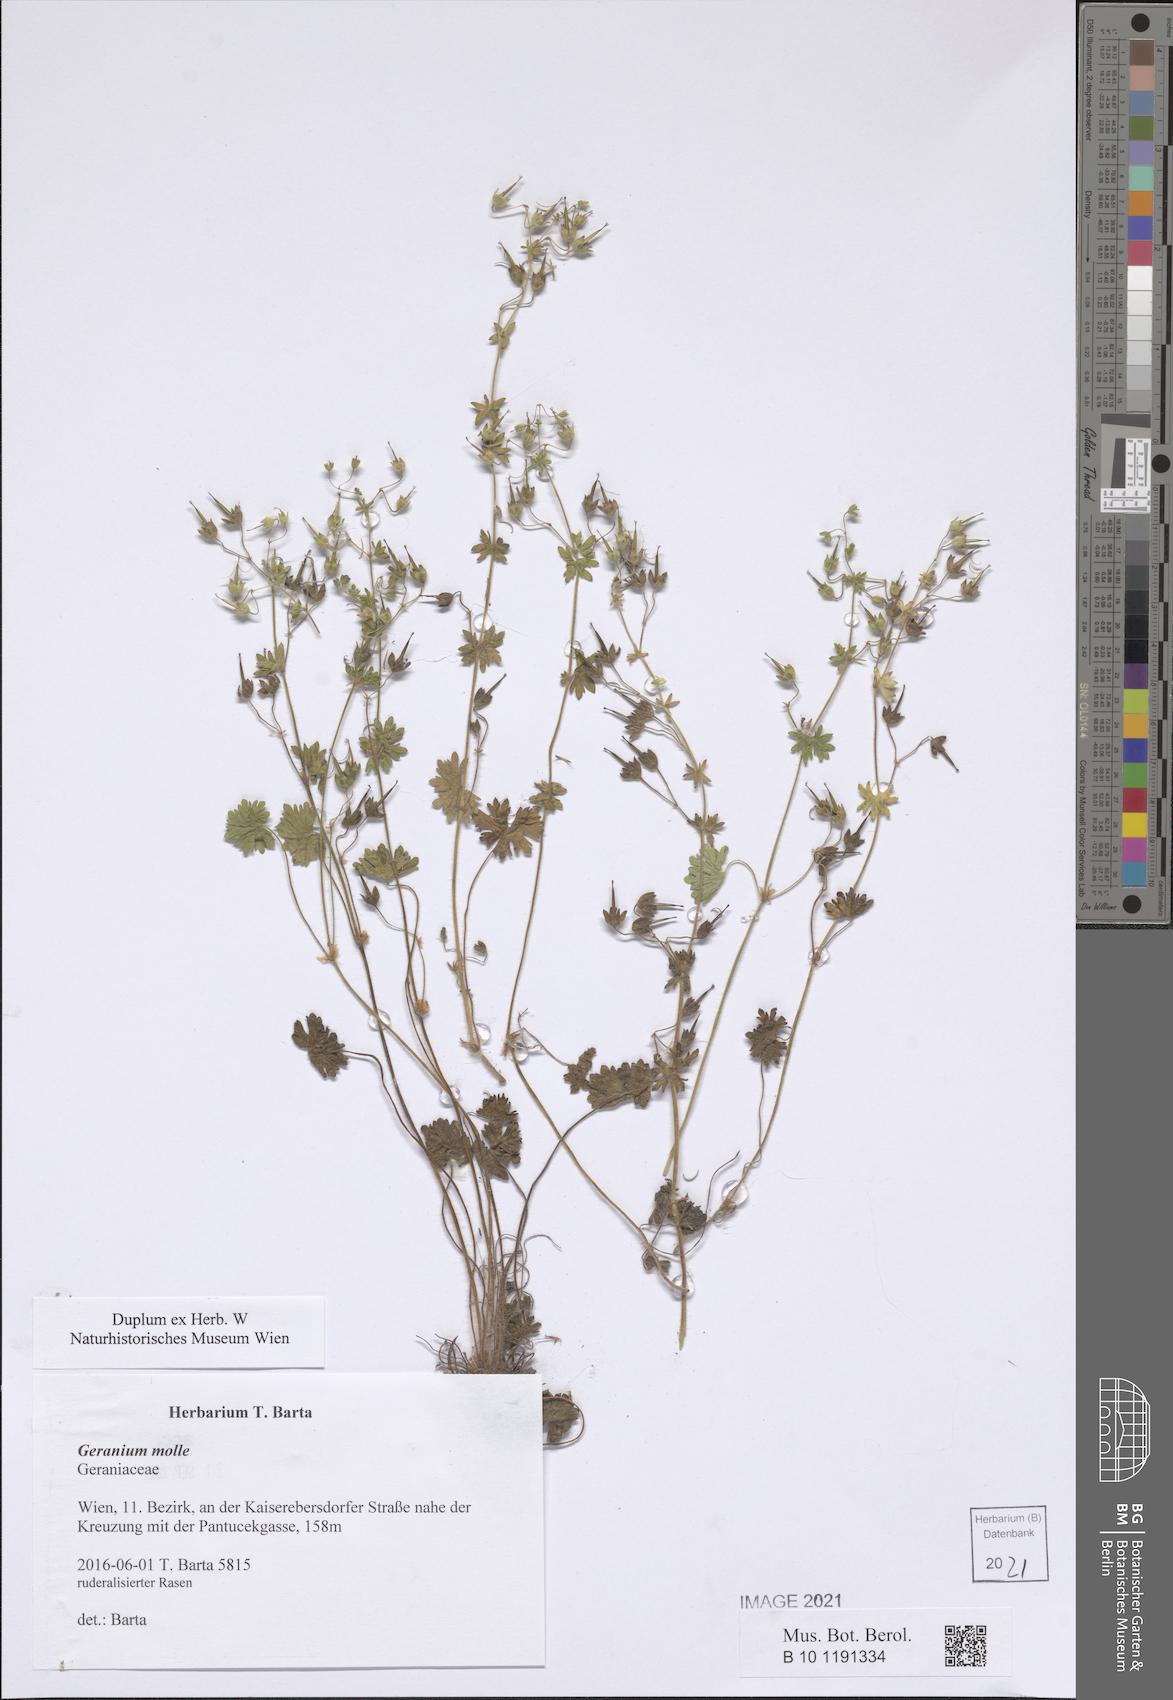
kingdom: Plantae
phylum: Tracheophyta
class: Magnoliopsida
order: Geraniales
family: Geraniaceae
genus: Geranium
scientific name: Geranium molle
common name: Dove's-foot crane's-bill
